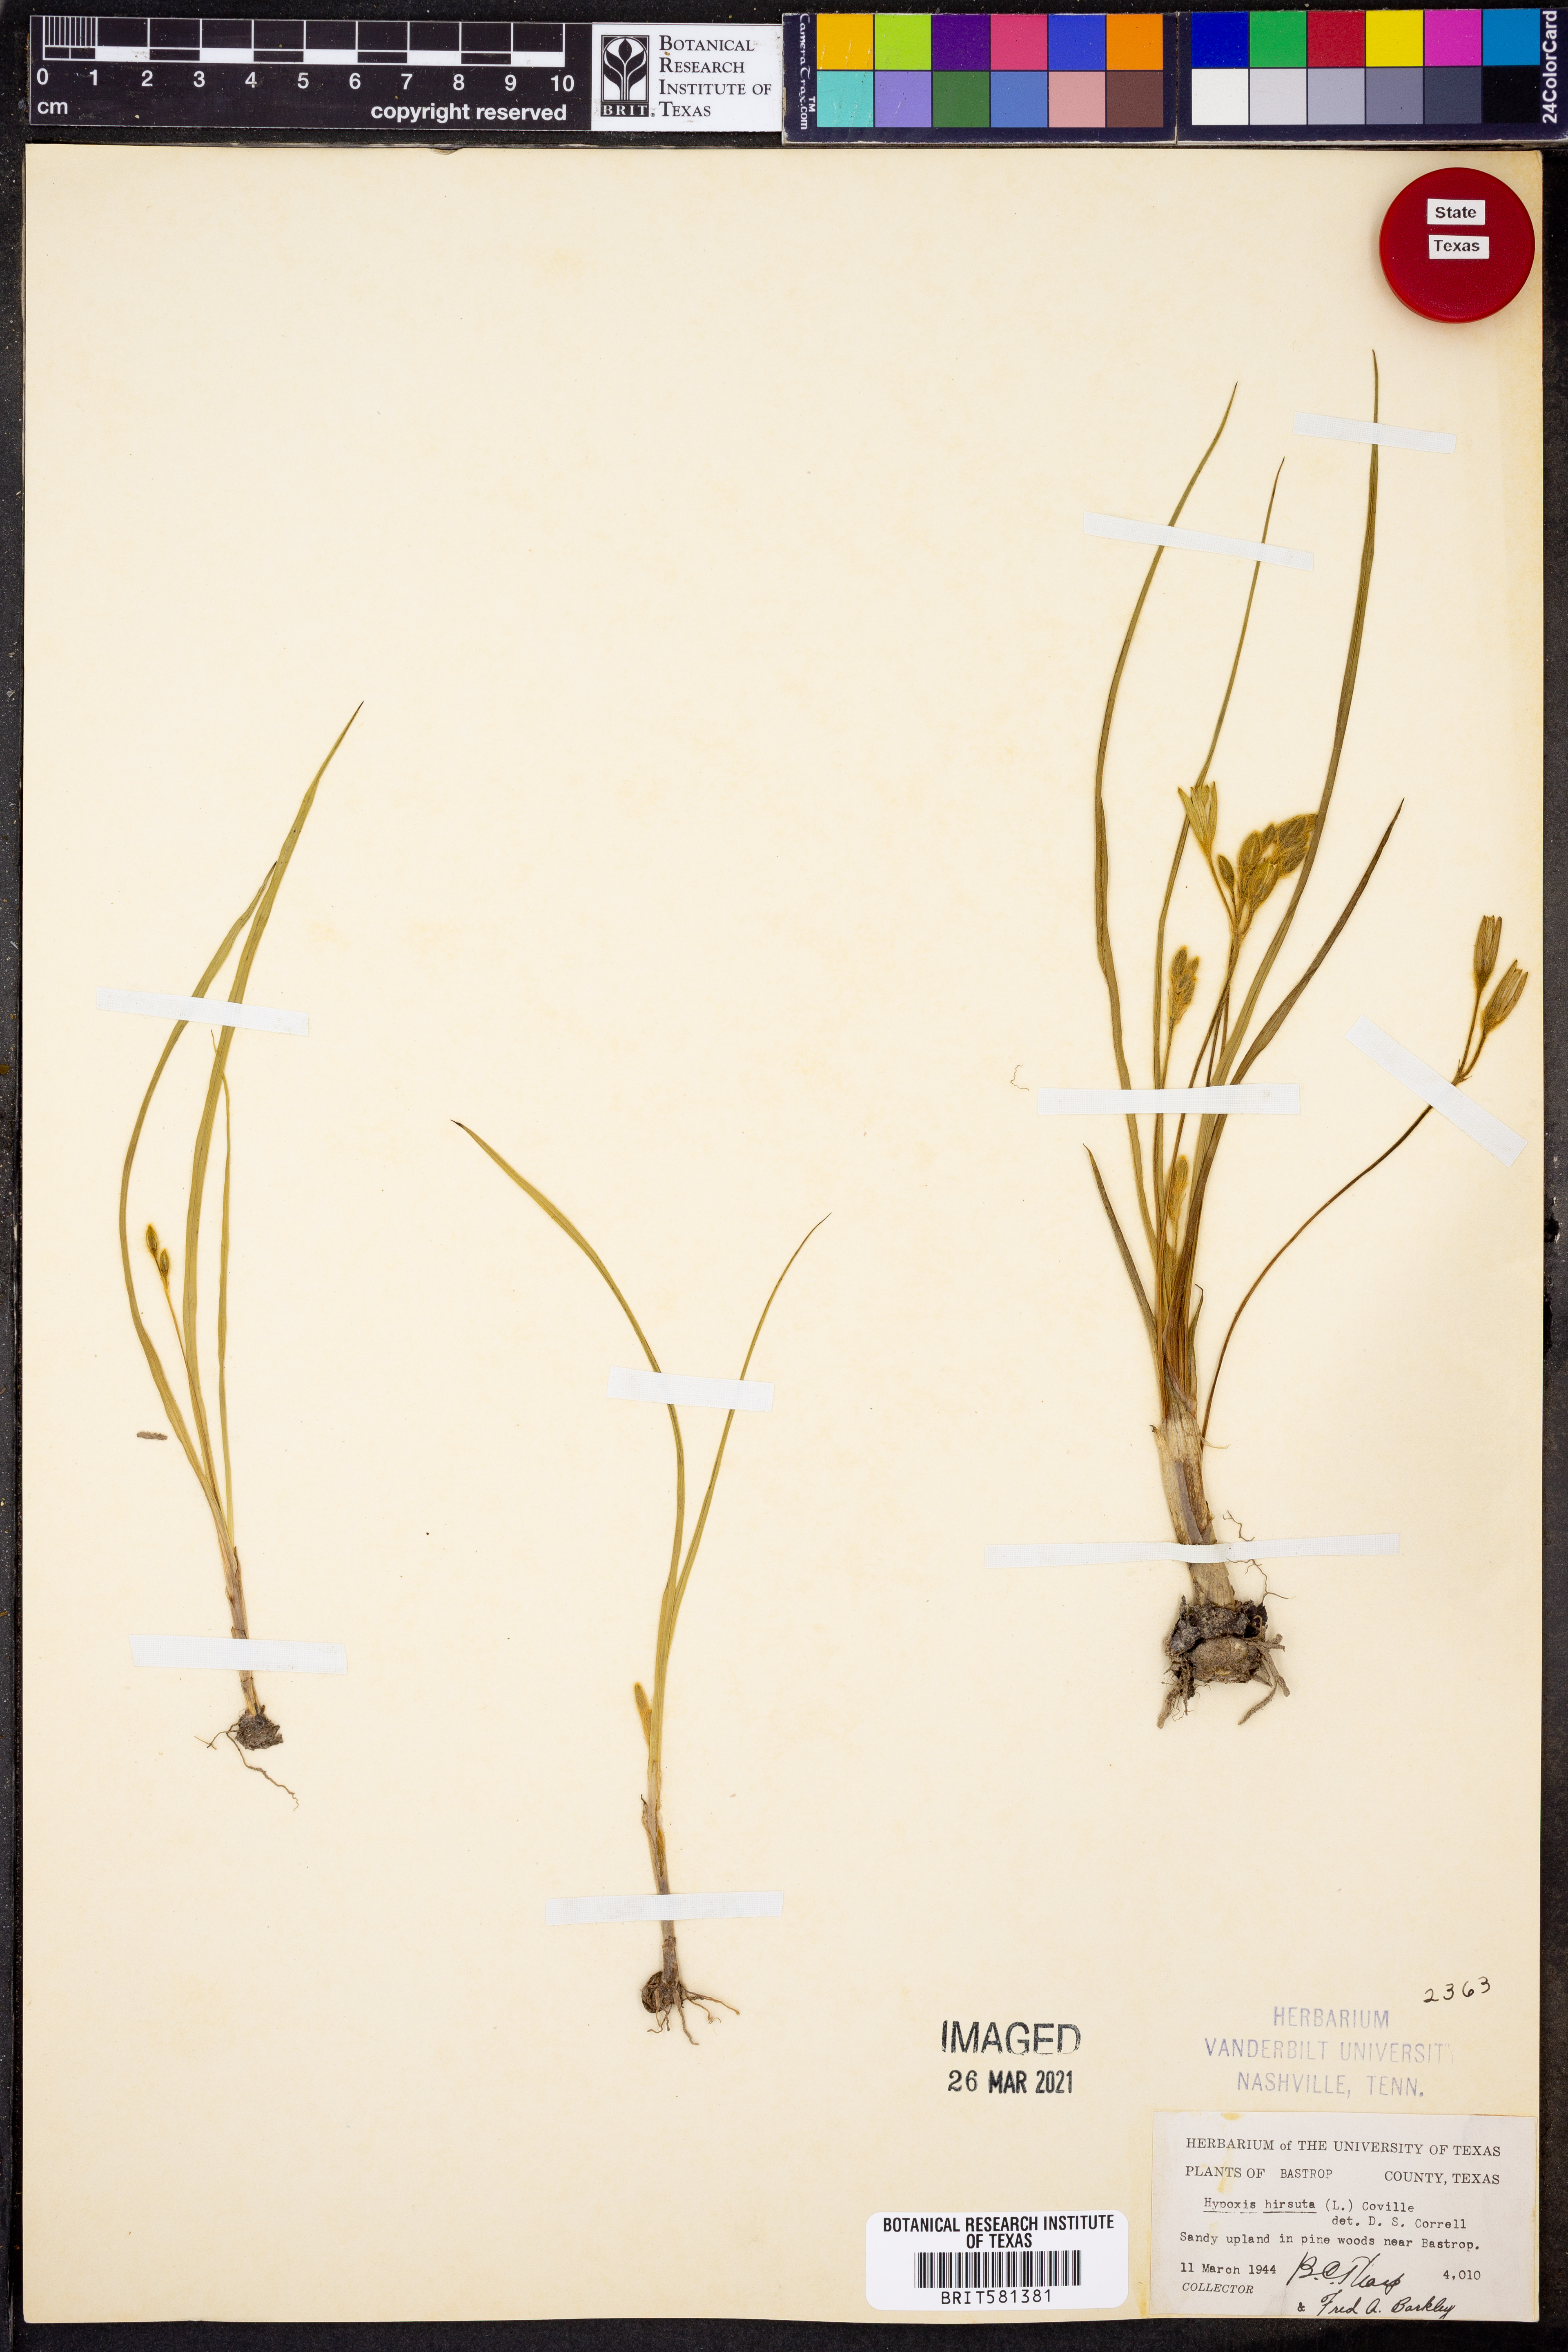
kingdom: Plantae
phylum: Tracheophyta
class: Liliopsida
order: Asparagales
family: Hypoxidaceae
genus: Hypoxis
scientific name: Hypoxis hirsuta
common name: Common goldstar
